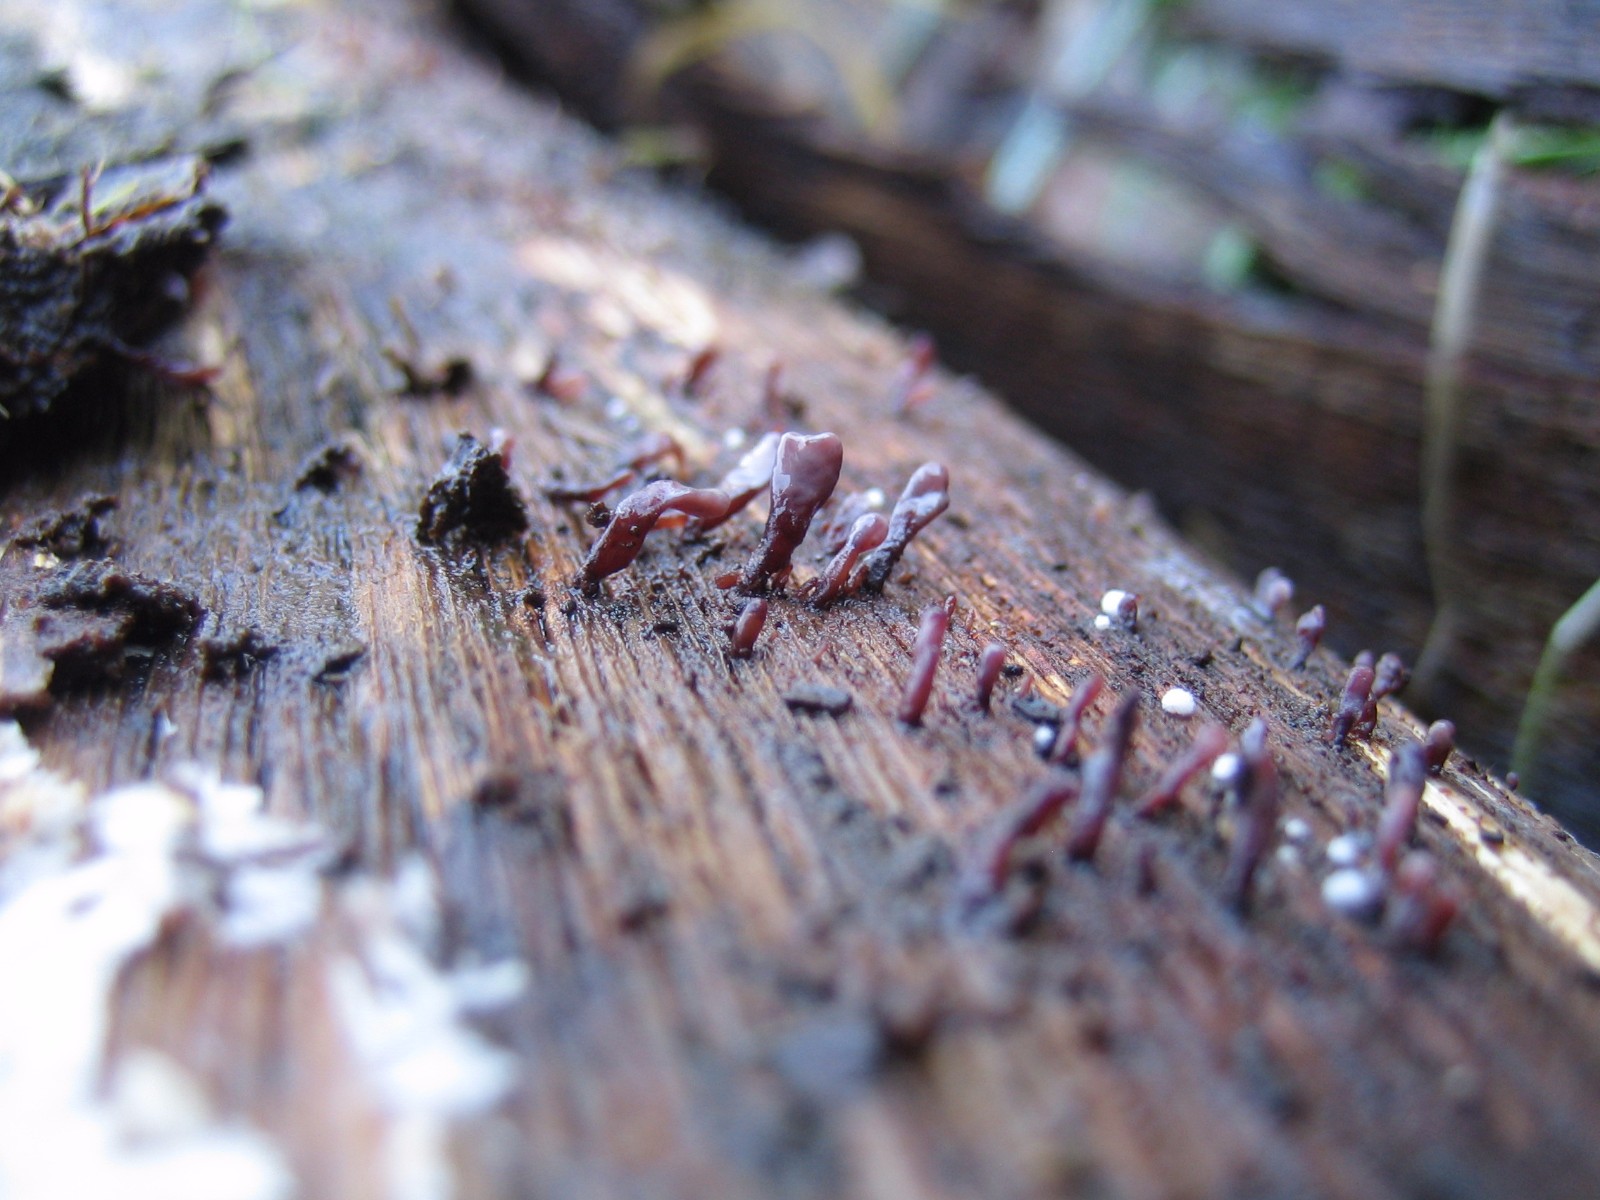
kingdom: Fungi
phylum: Ascomycota
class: Leotiomycetes
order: Helotiales
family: Gelatinodiscaceae
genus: Ascocoryne
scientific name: Ascocoryne
